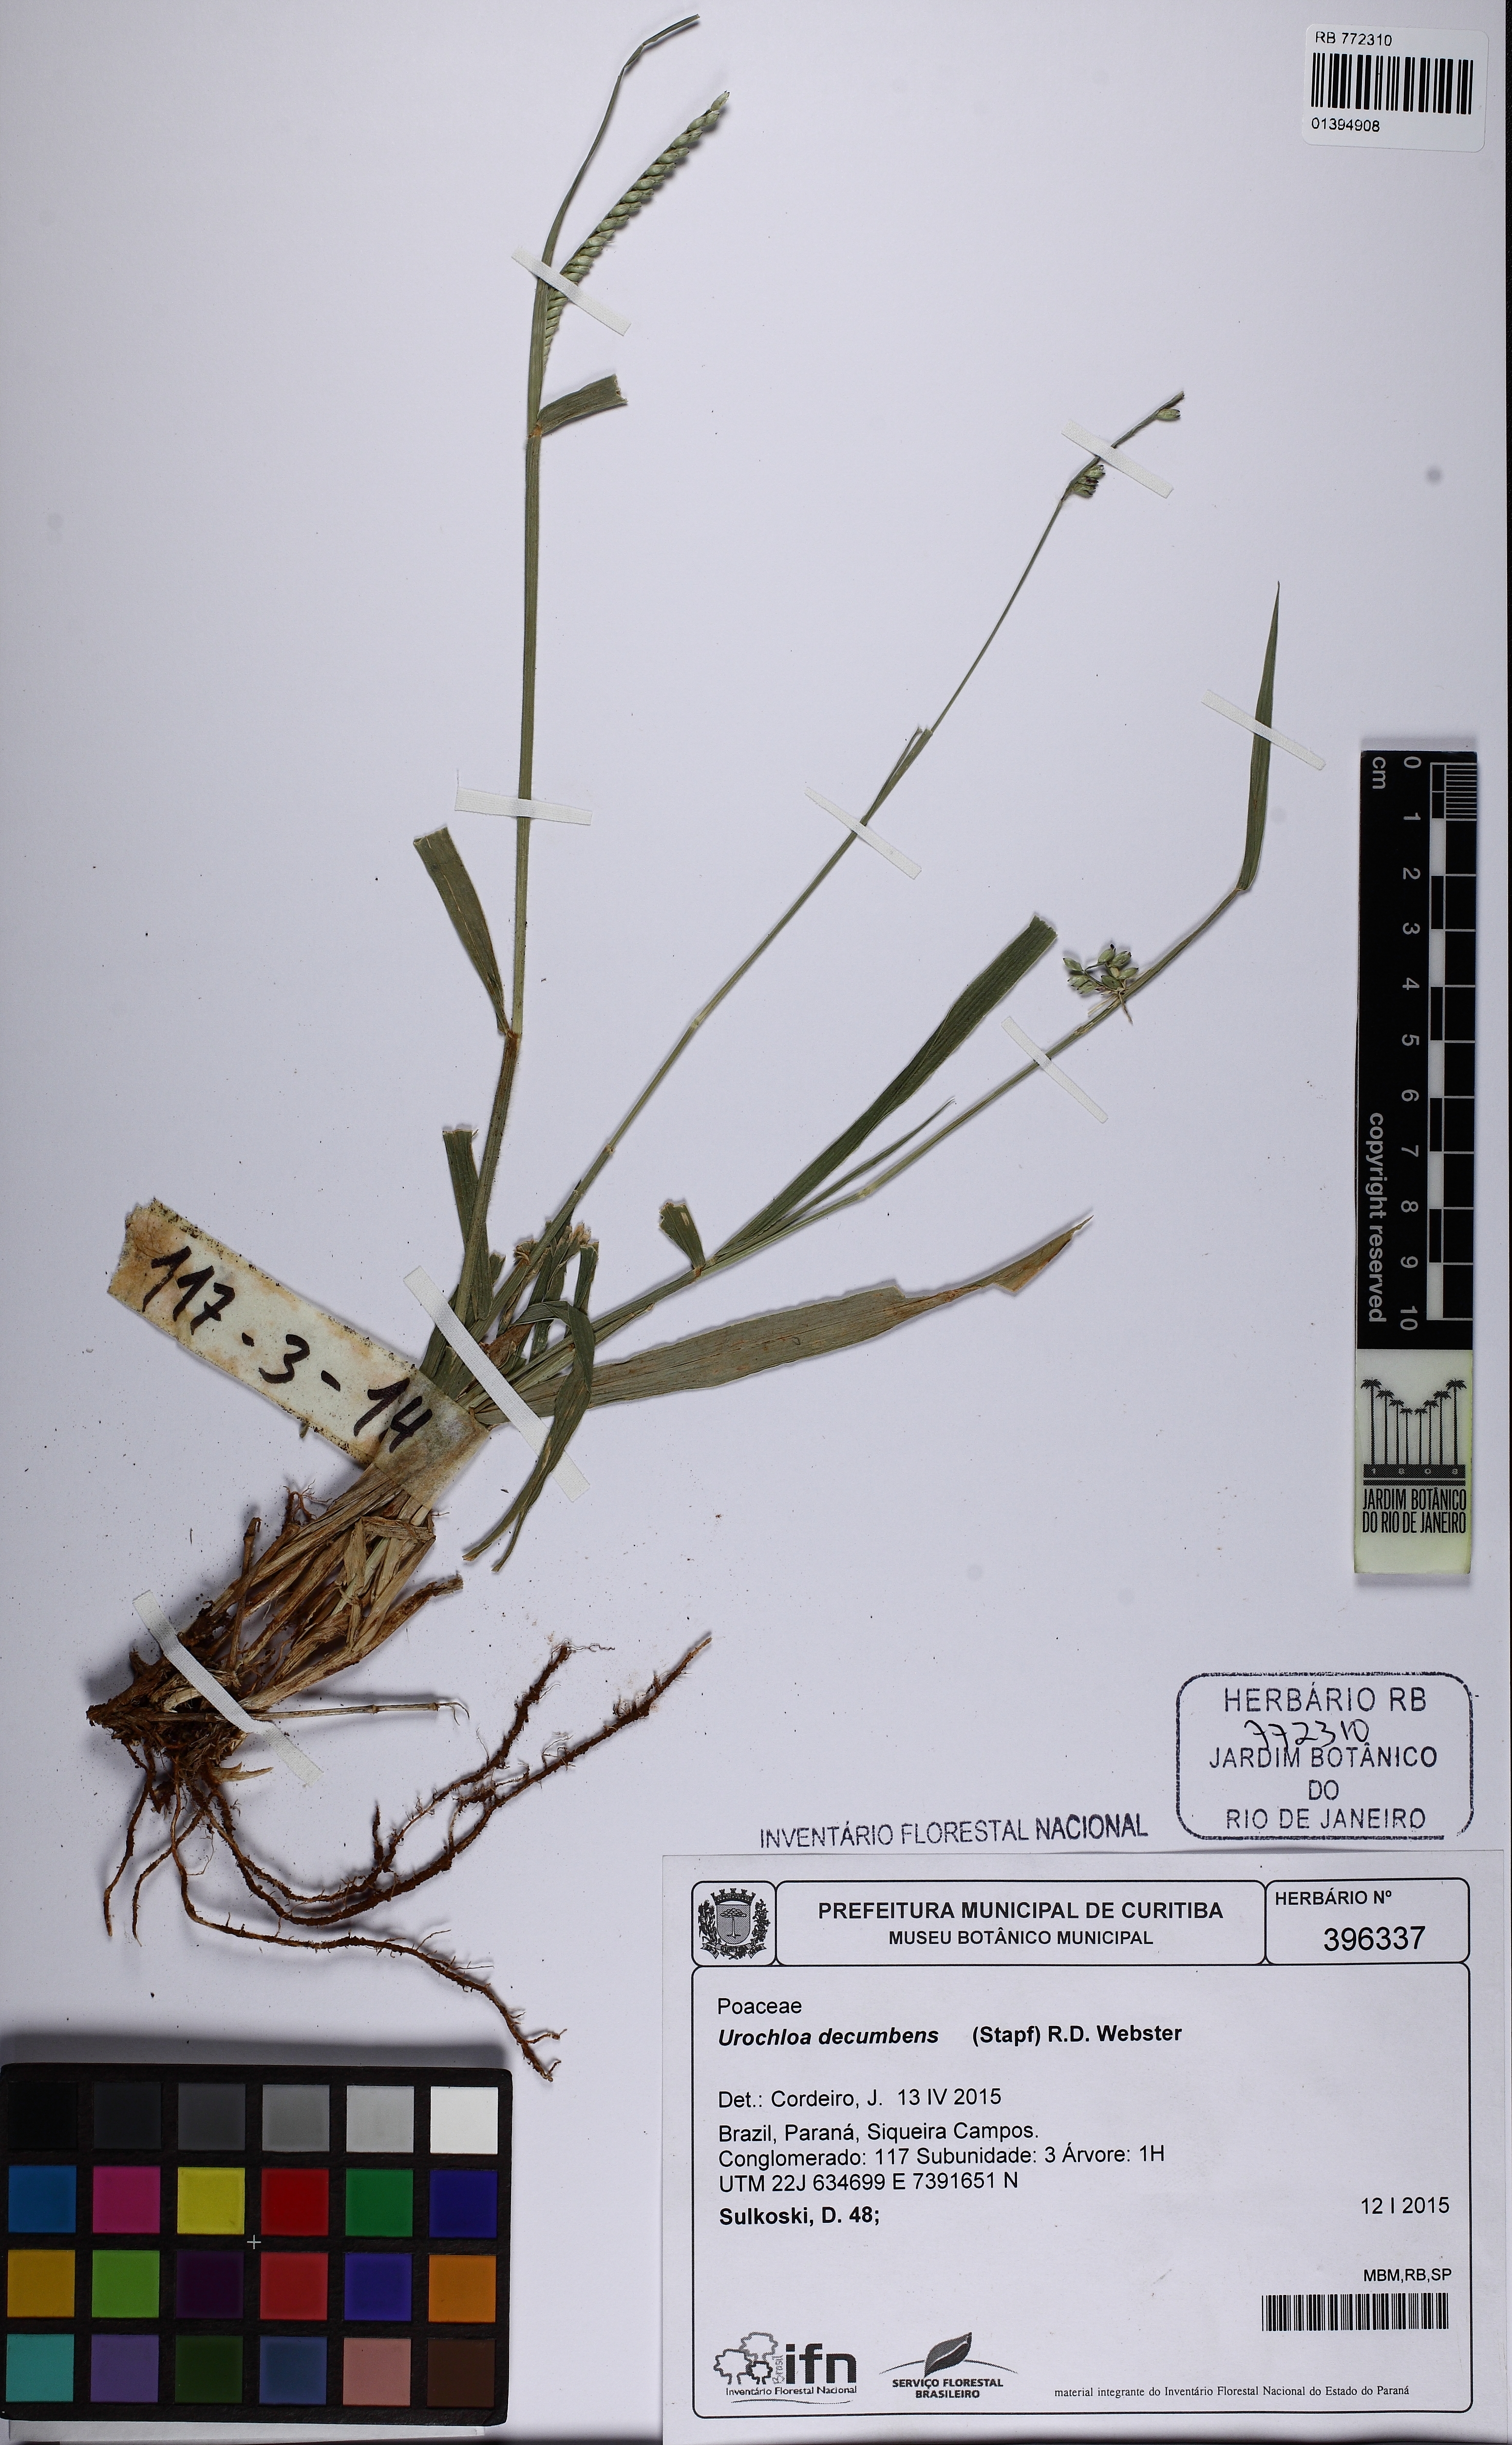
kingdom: Plantae
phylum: Tracheophyta
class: Liliopsida
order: Poales
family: Poaceae
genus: Urochloa
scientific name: Urochloa eminii
